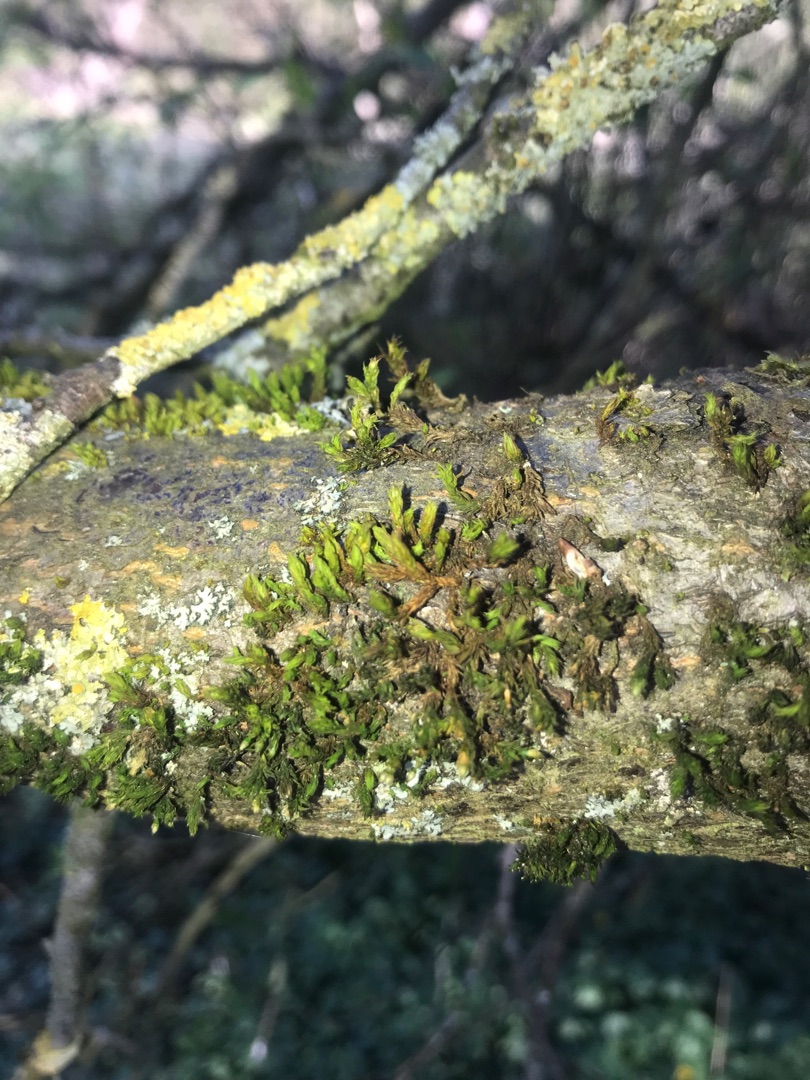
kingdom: Plantae
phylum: Bryophyta
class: Bryopsida
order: Orthotrichales
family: Orthotrichaceae
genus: Orthotrichum
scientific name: Orthotrichum
